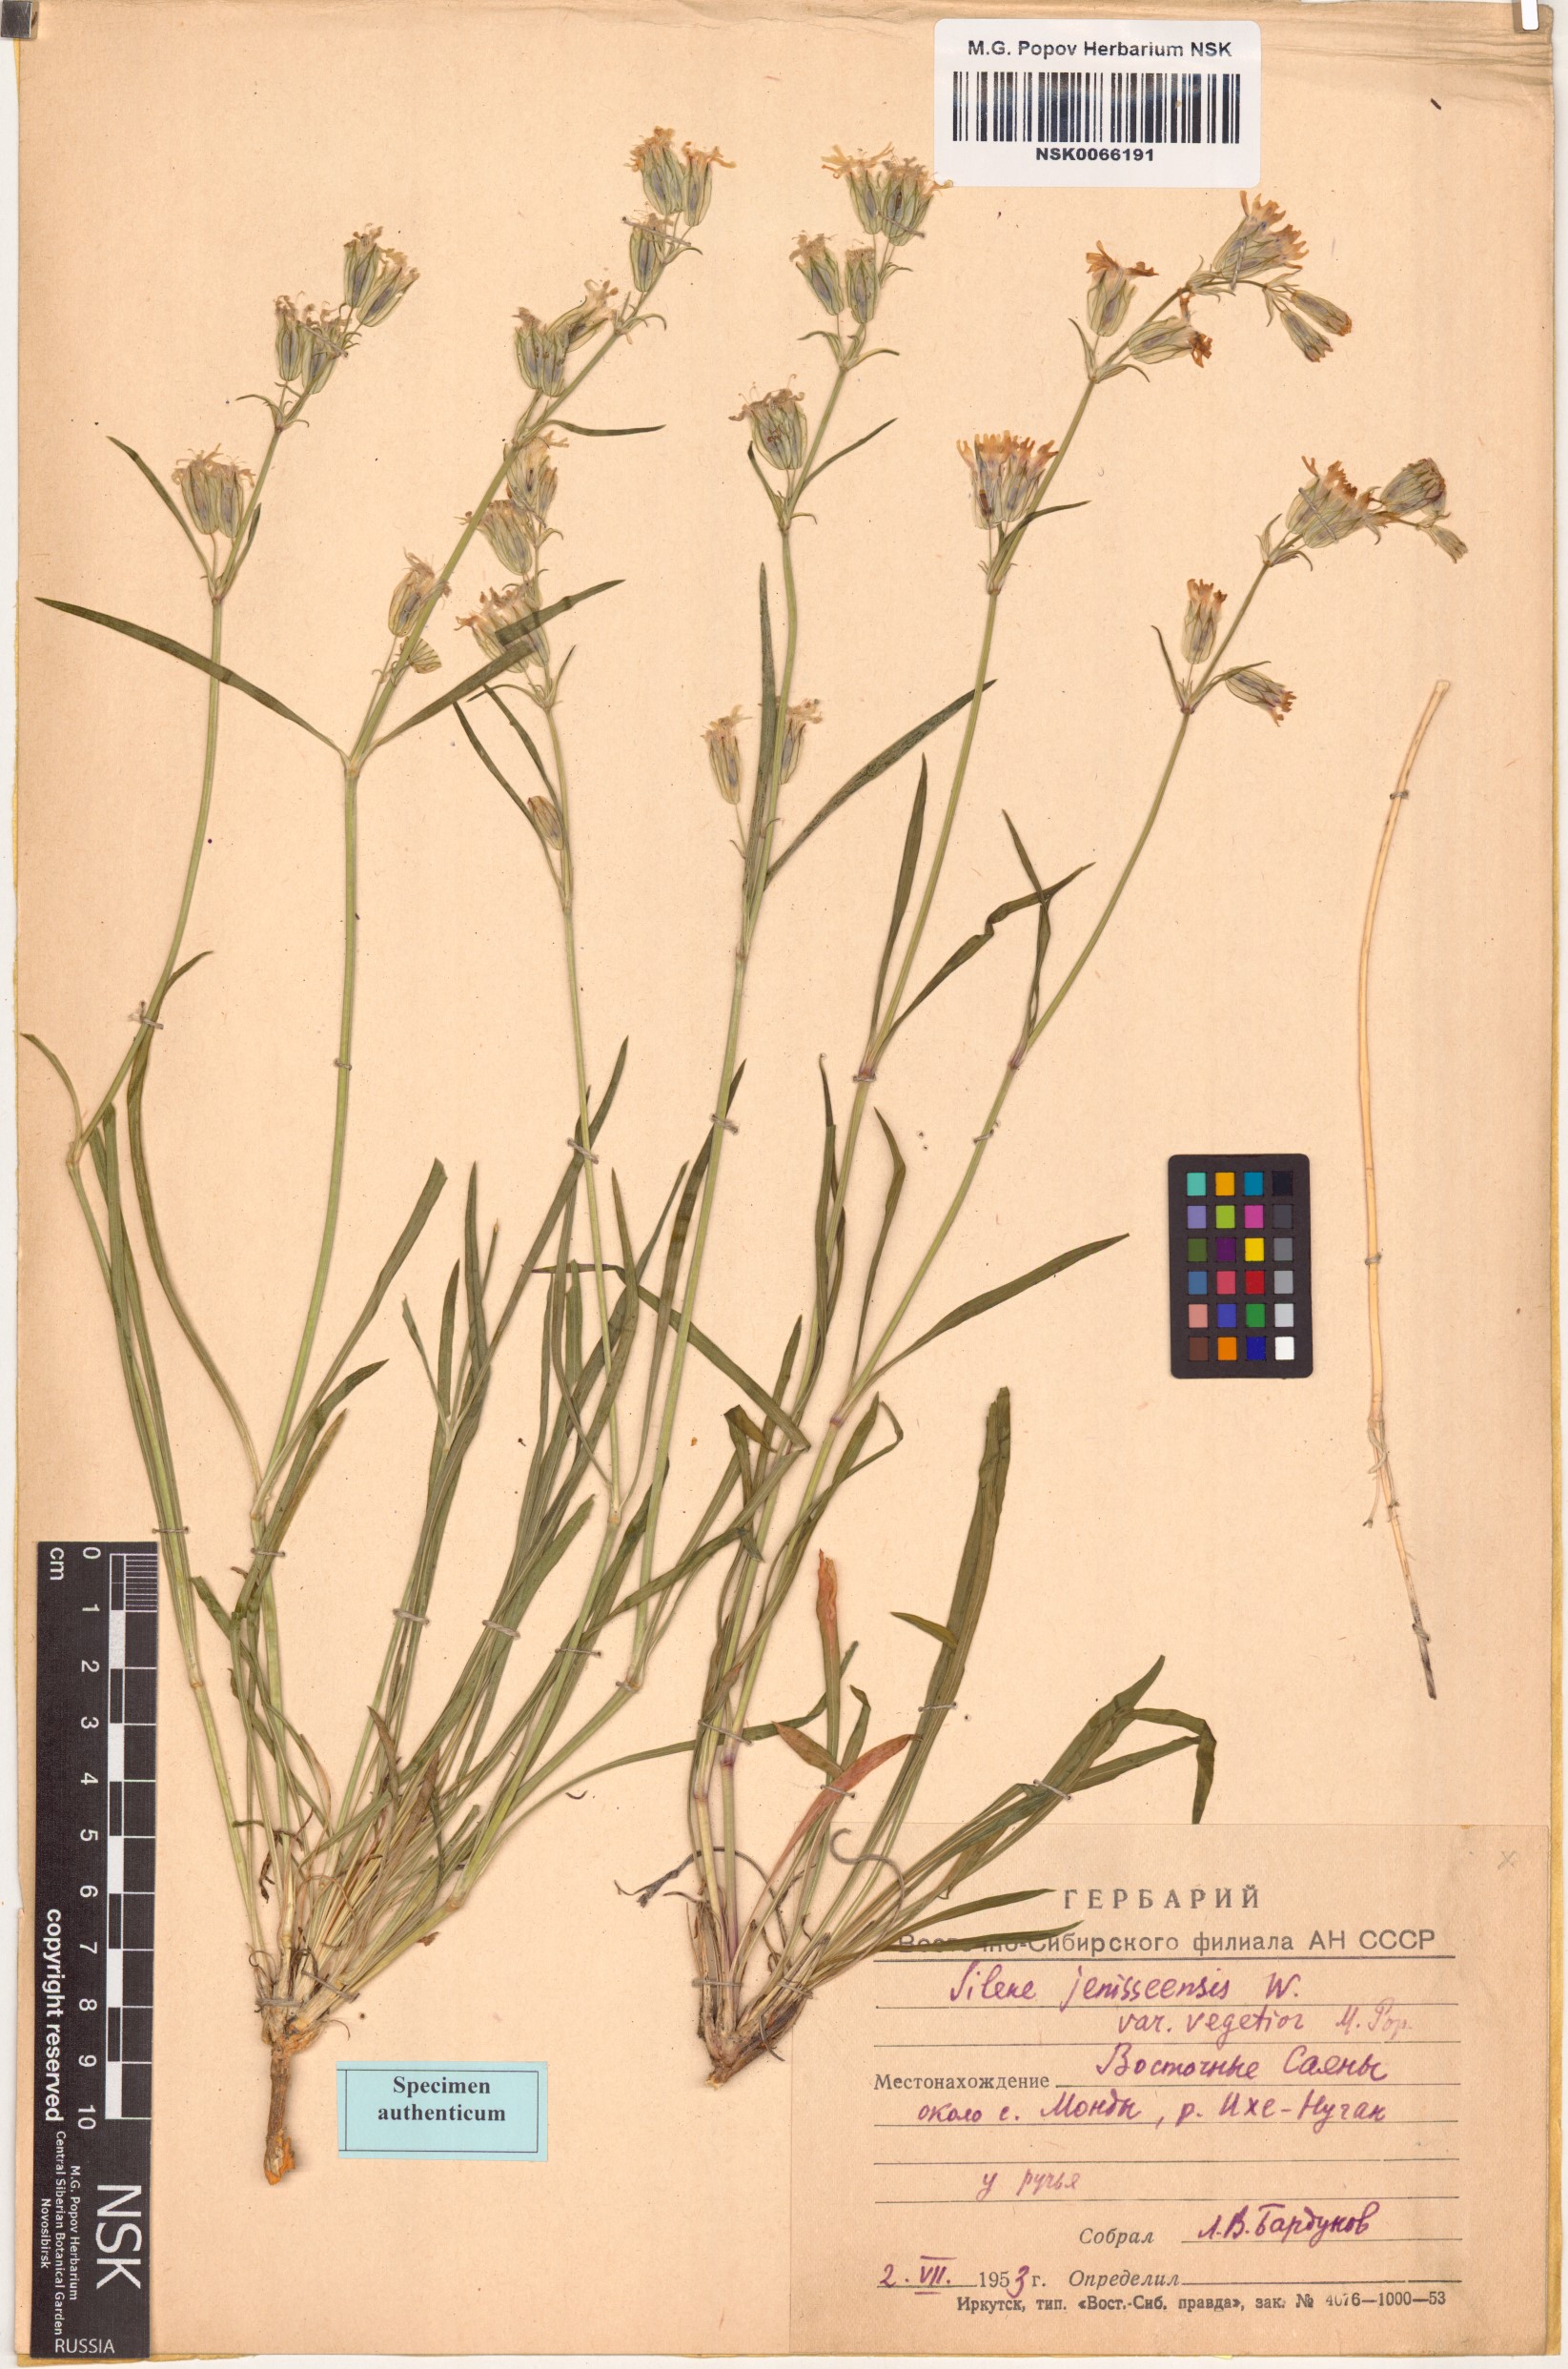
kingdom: Plantae
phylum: Tracheophyta
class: Magnoliopsida
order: Caryophyllales
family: Caryophyllaceae
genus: Silene
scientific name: Silene jeniseensis
